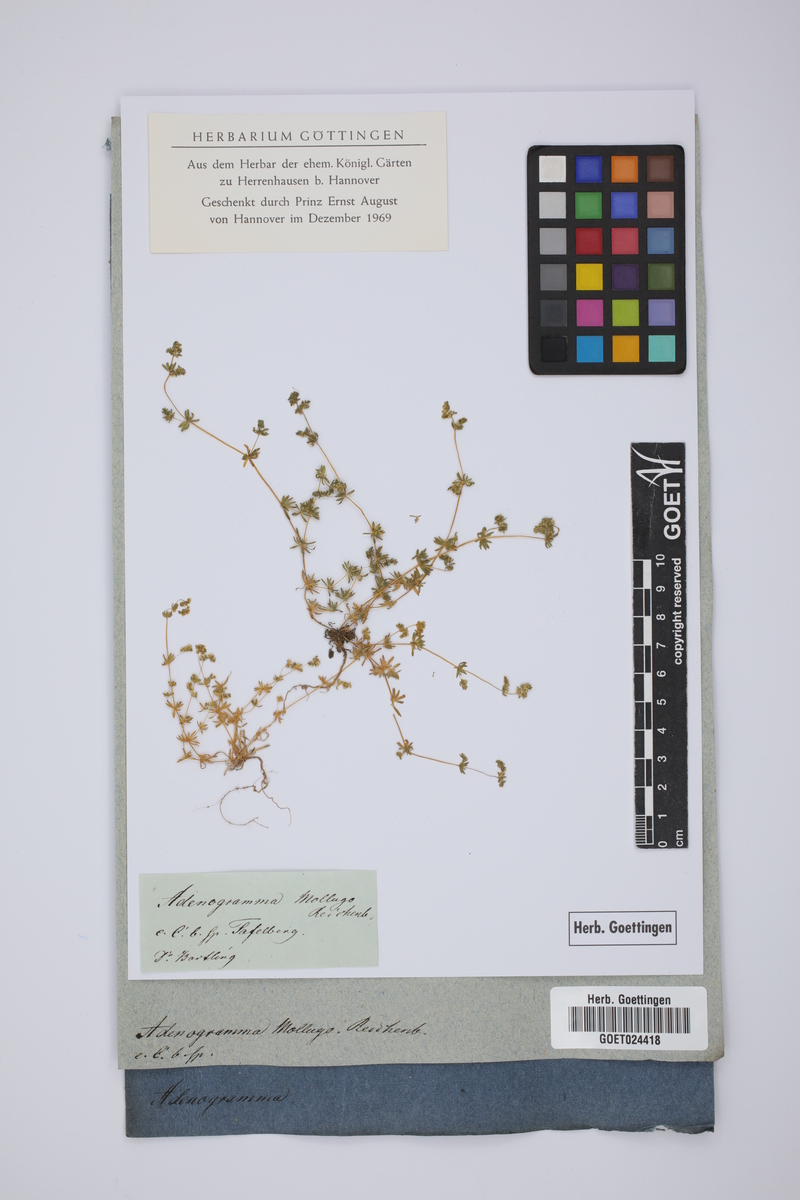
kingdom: Plantae
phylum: Tracheophyta
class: Magnoliopsida
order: Caryophyllales
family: Molluginaceae
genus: Adenogramma
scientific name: Adenogramma mollugo
